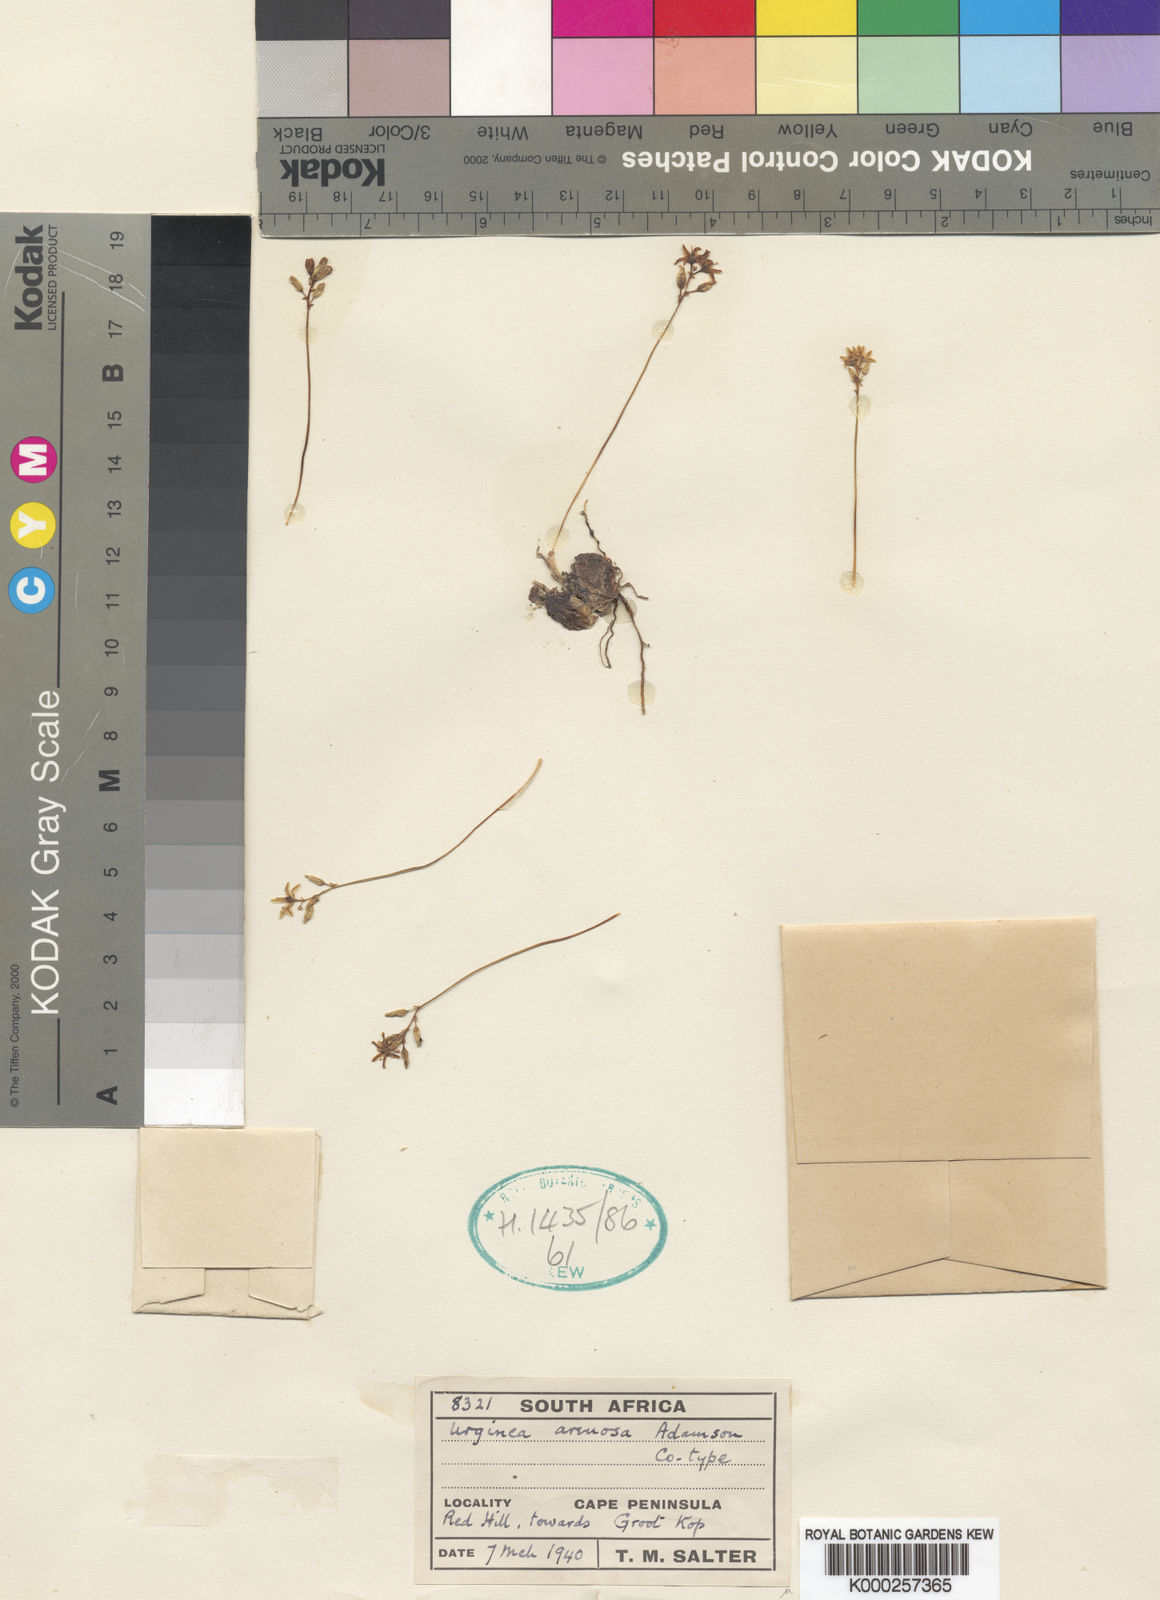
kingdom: Plantae
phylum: Tracheophyta
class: Liliopsida
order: Asparagales
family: Asparagaceae
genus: Drimia
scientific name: Drimia salteri
